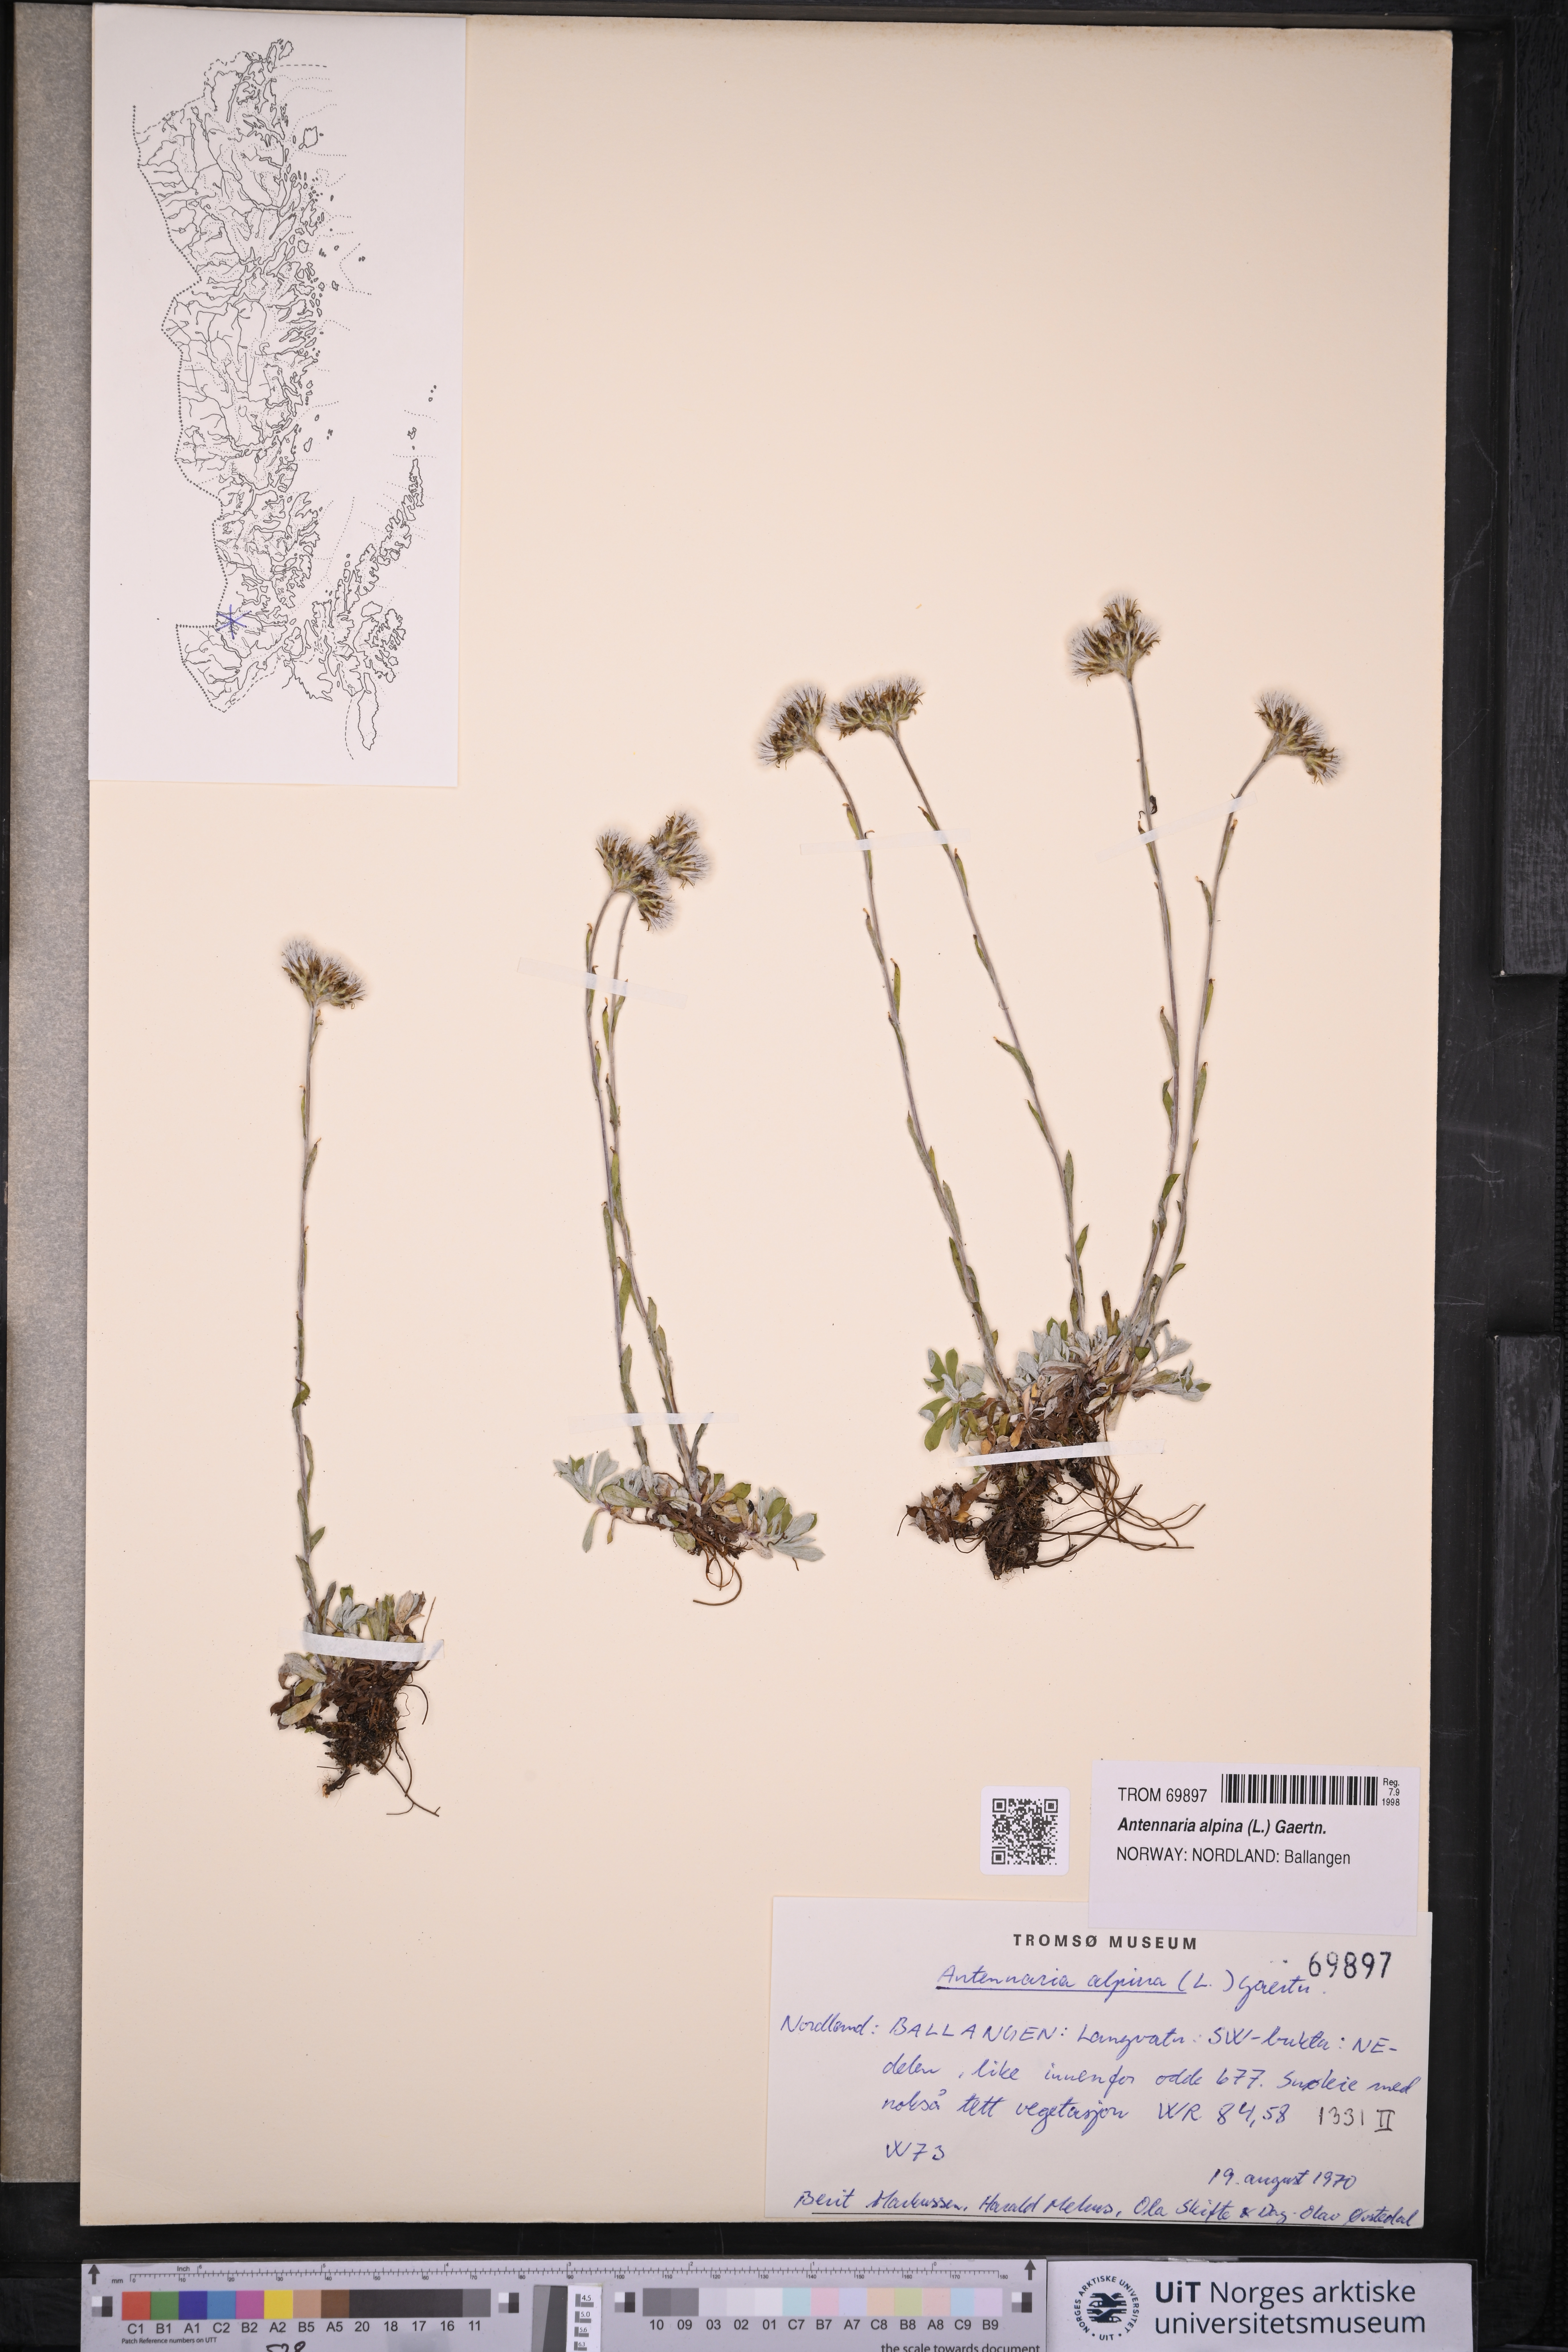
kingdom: Plantae
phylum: Tracheophyta
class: Magnoliopsida
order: Asterales
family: Asteraceae
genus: Antennaria
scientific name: Antennaria alpina
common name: Alpine pussytoes
